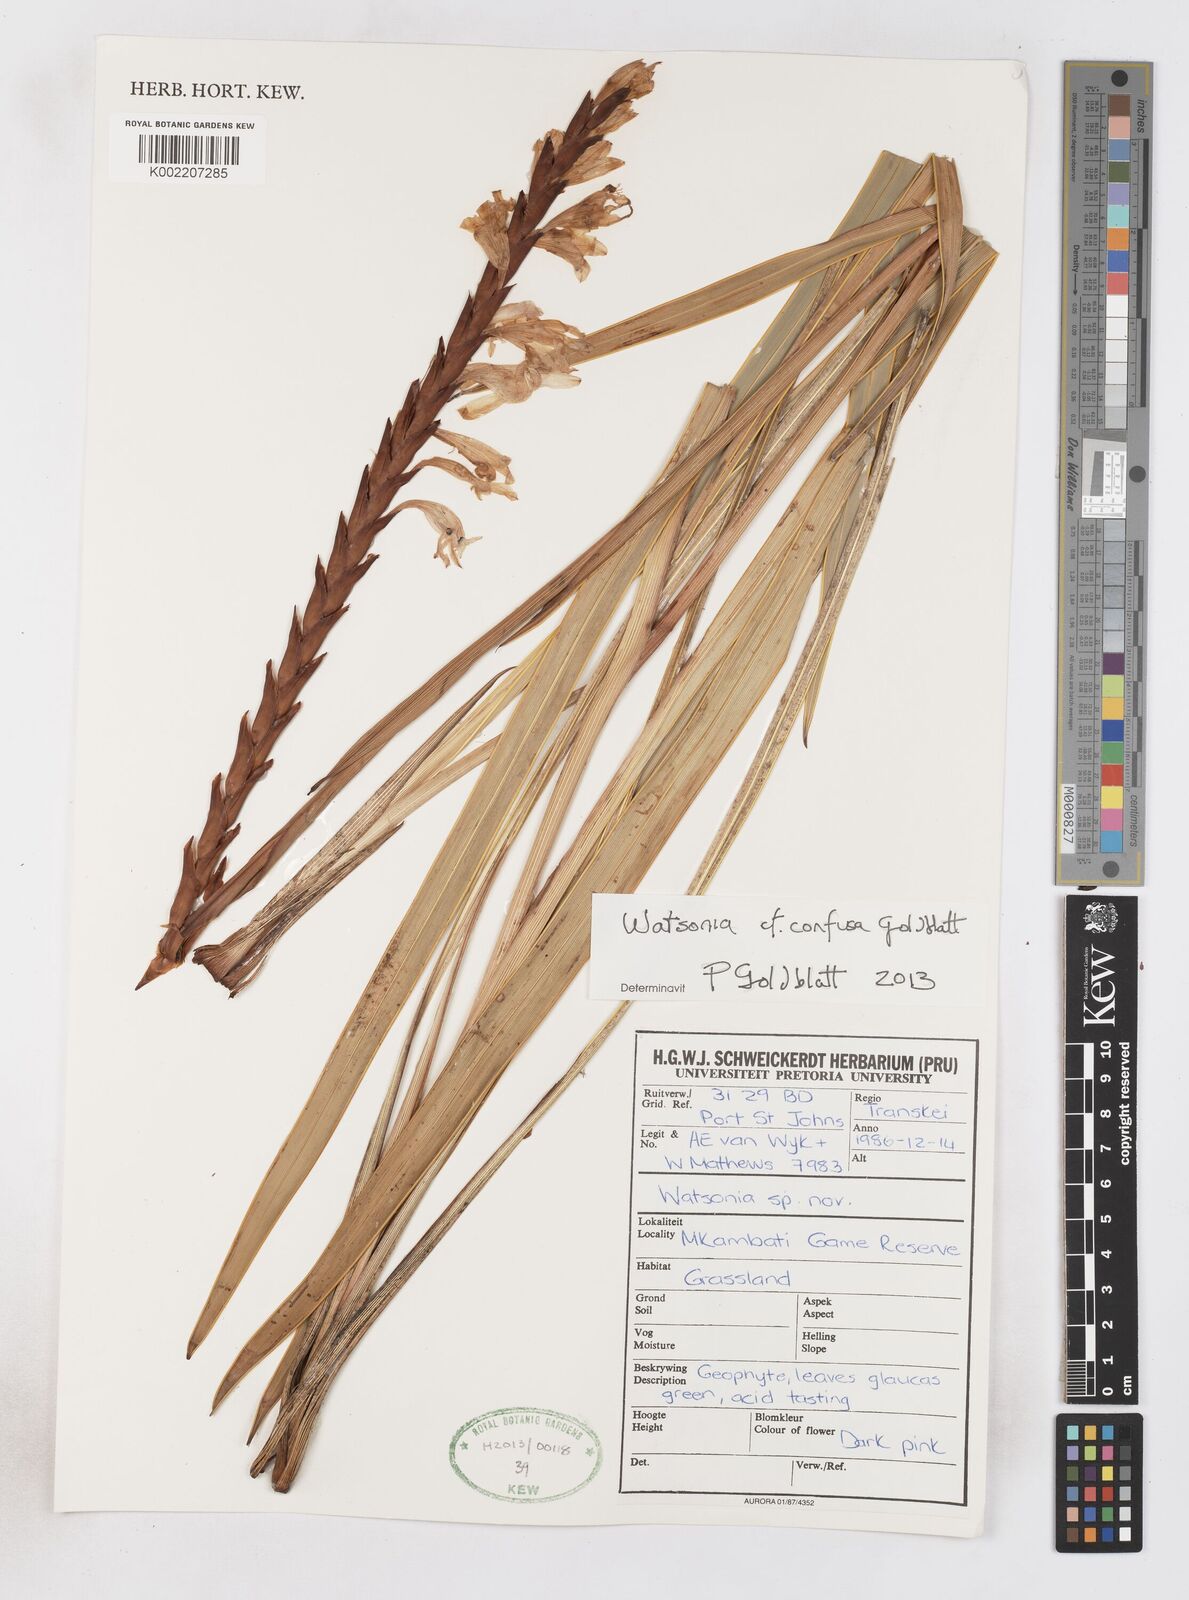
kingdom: Plantae
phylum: Tracheophyta
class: Liliopsida
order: Asparagales
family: Iridaceae
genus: Watsonia
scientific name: Watsonia confusa
